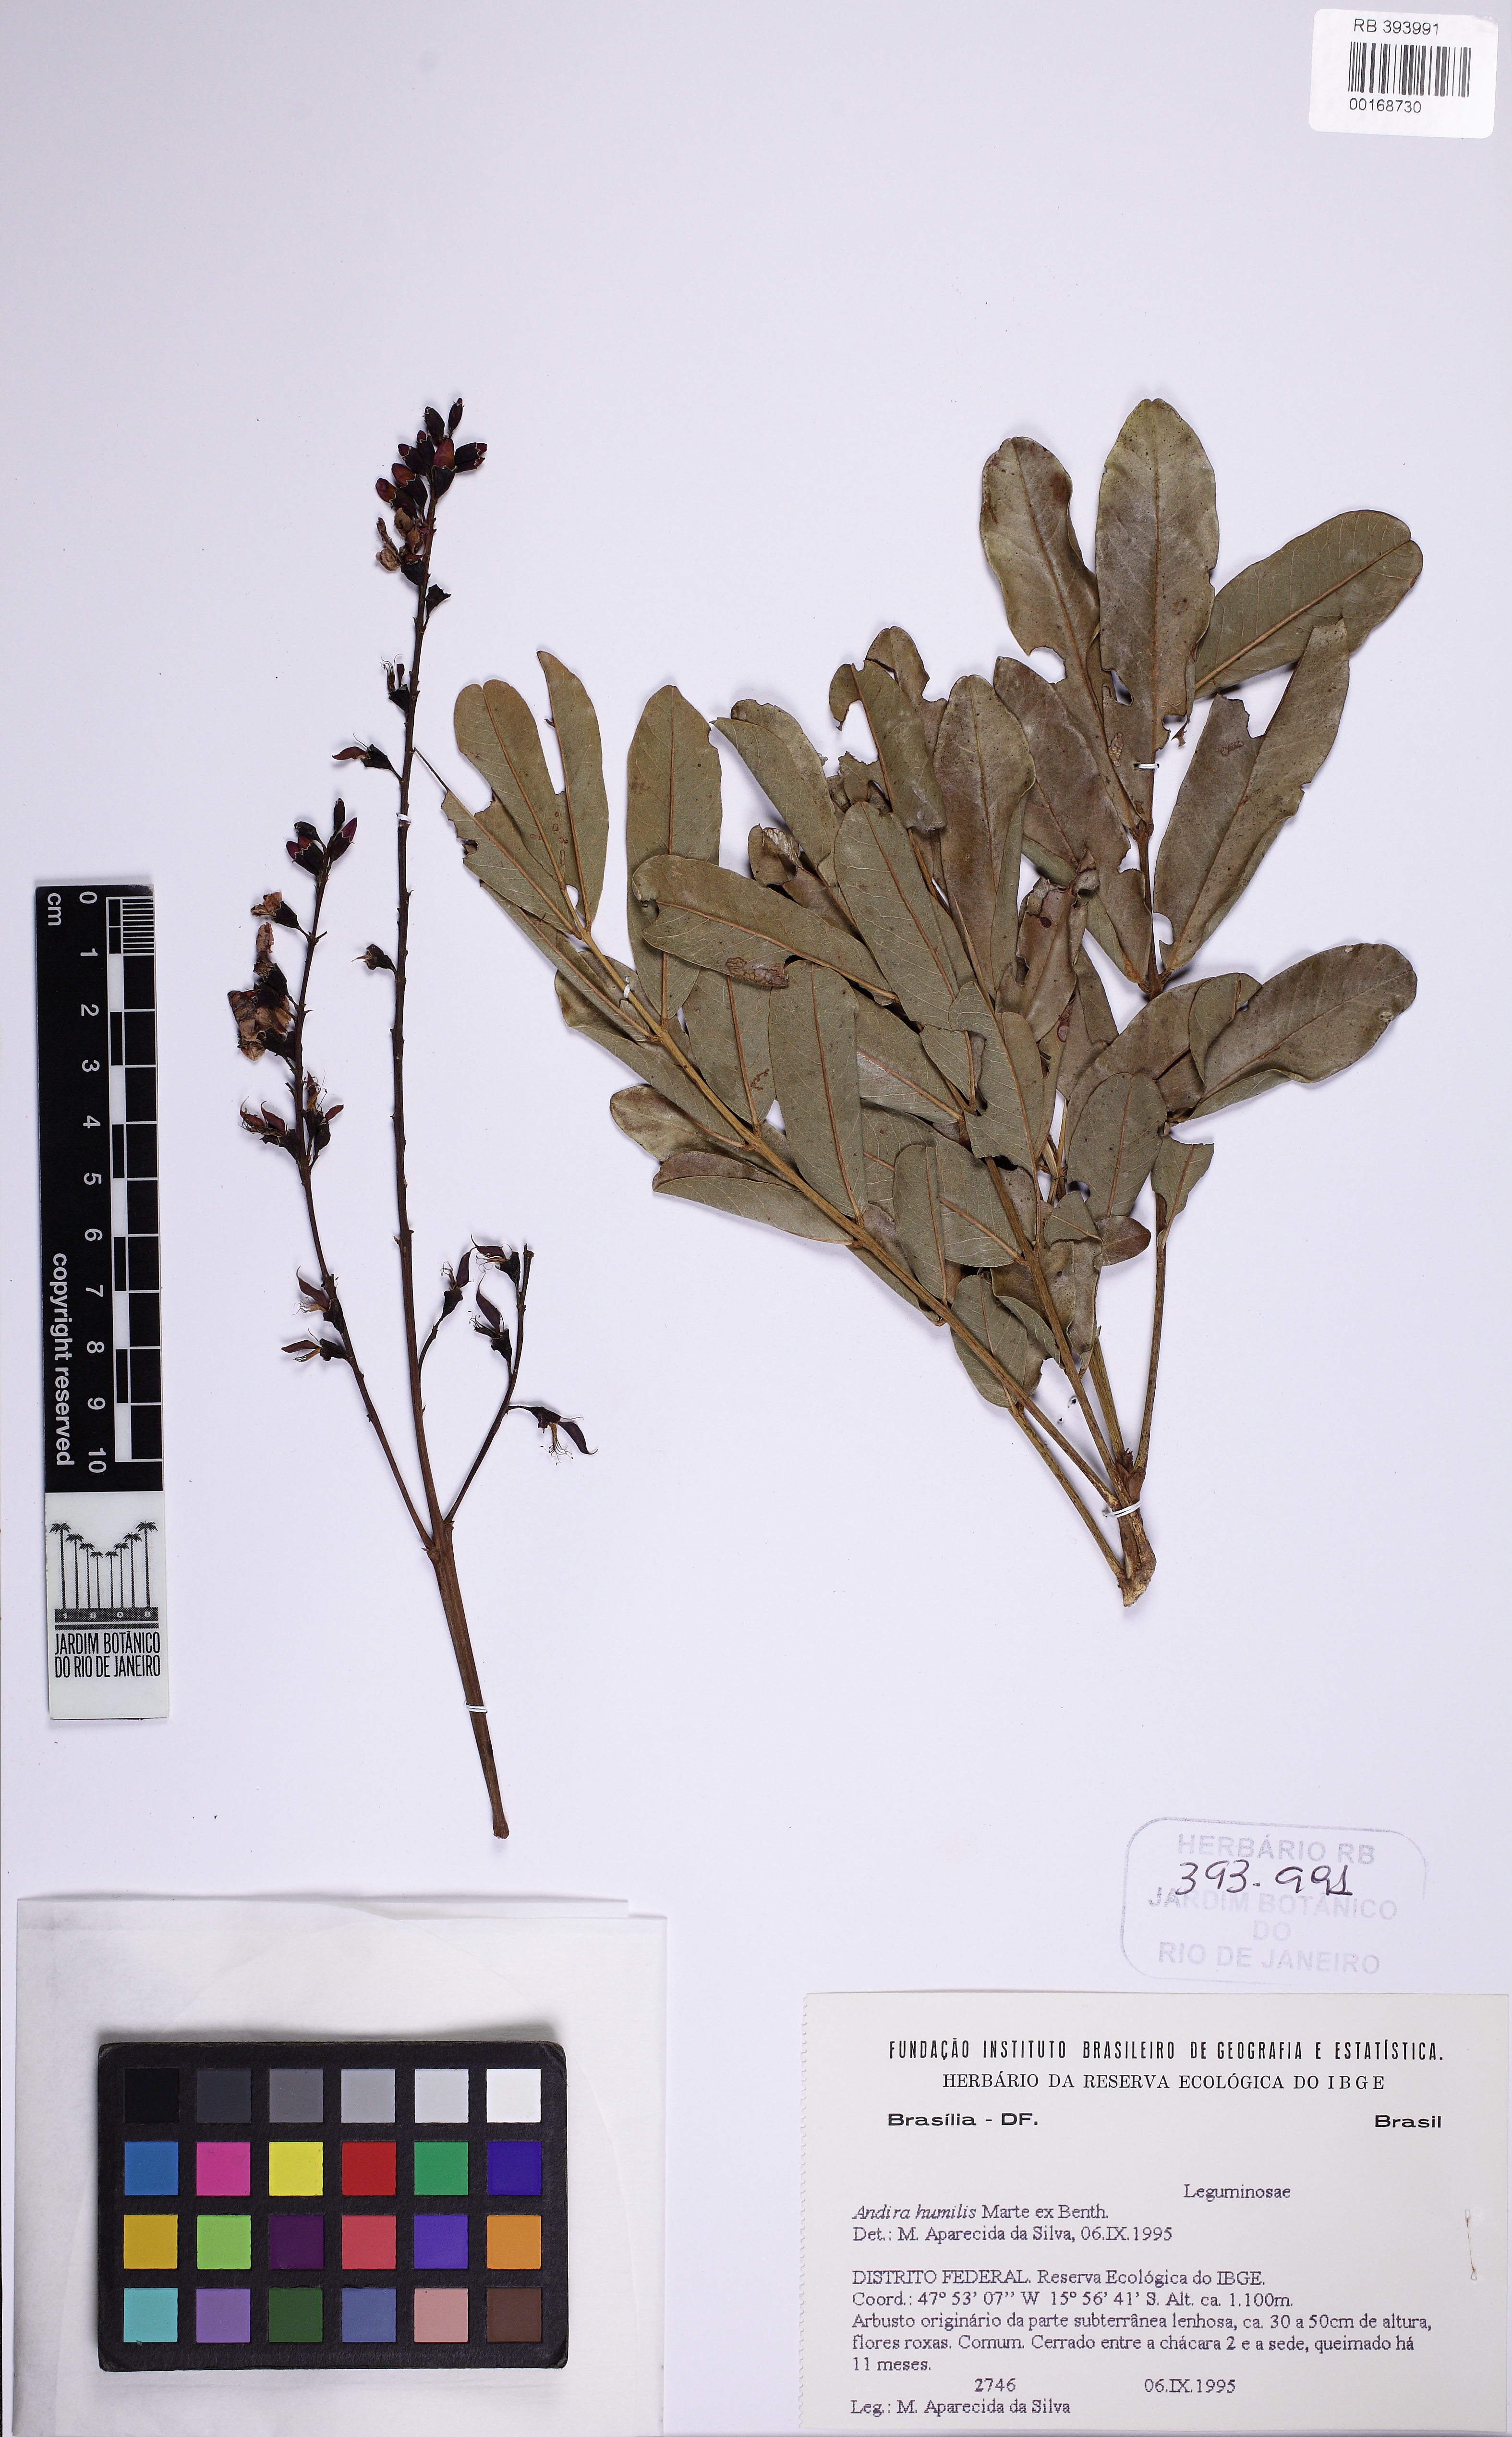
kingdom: Plantae
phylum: Tracheophyta
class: Magnoliopsida
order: Fabales
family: Fabaceae
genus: Andira
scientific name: Andira humilis
